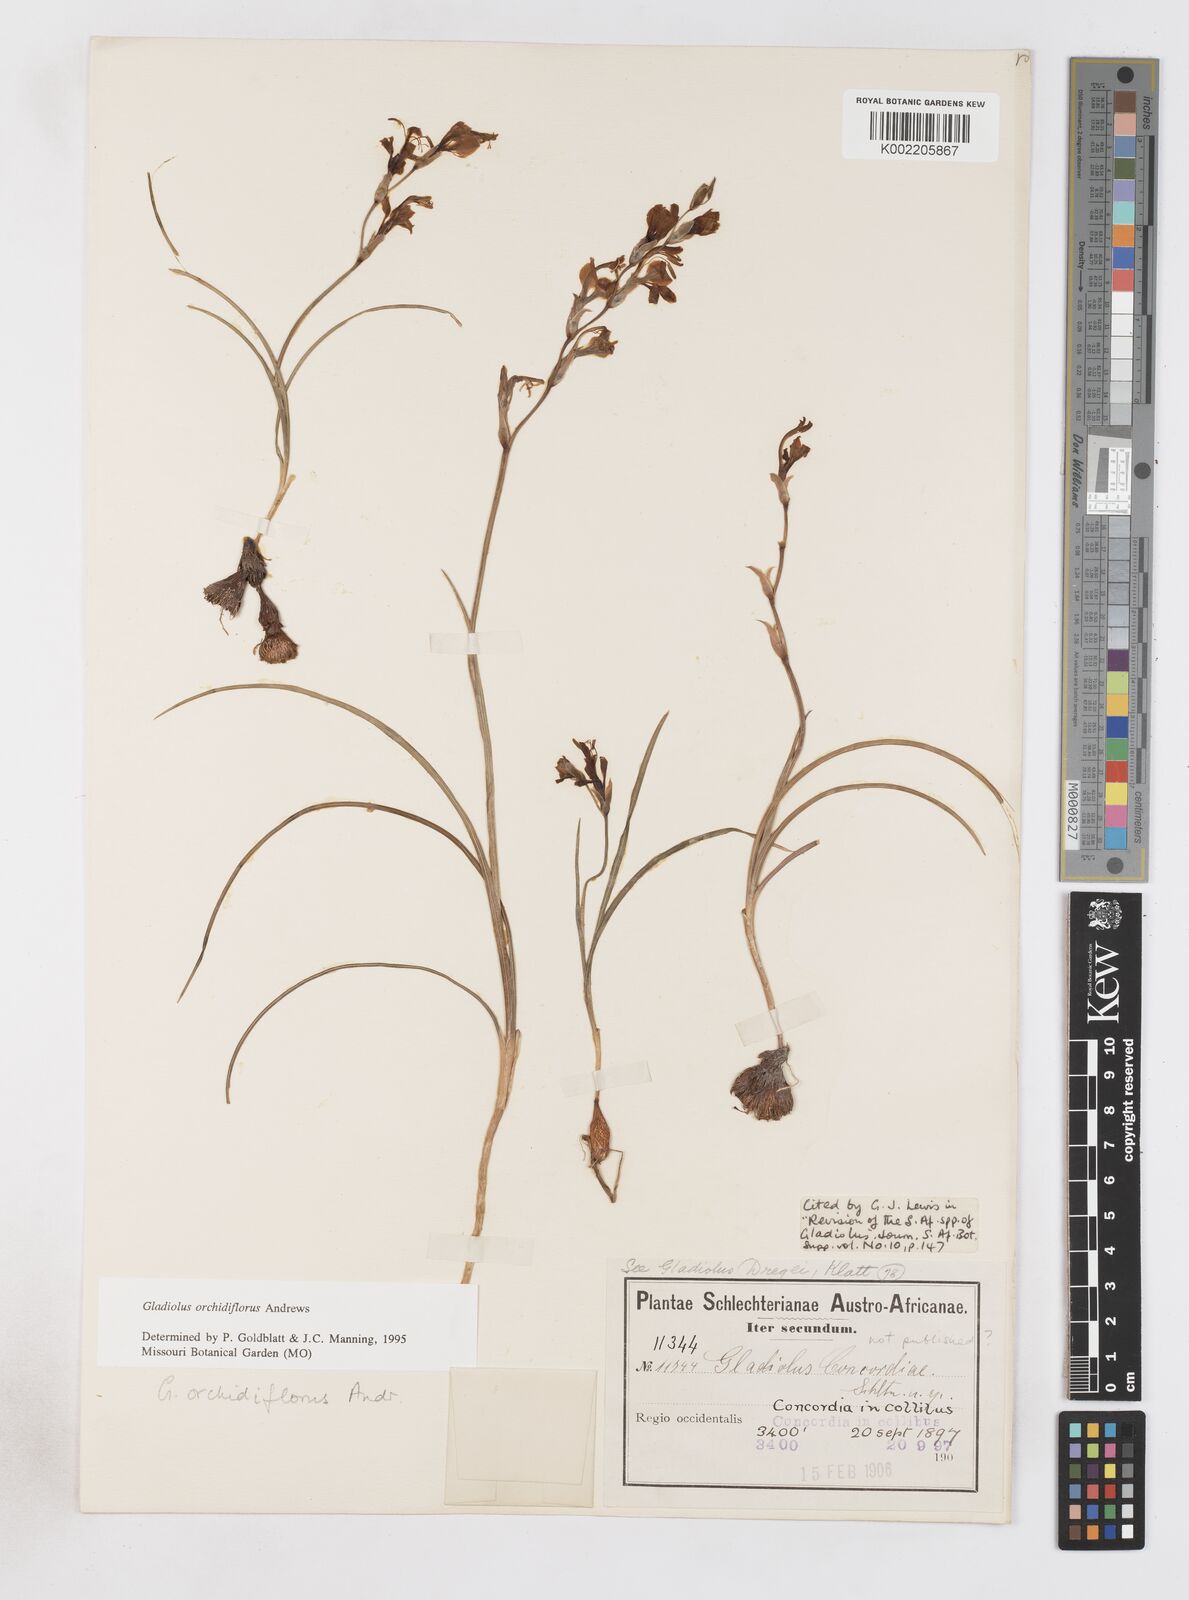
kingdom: Plantae
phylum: Tracheophyta
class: Liliopsida
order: Asparagales
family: Iridaceae
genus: Gladiolus
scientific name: Gladiolus orchidiflorus
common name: Gray kalkoentjie
